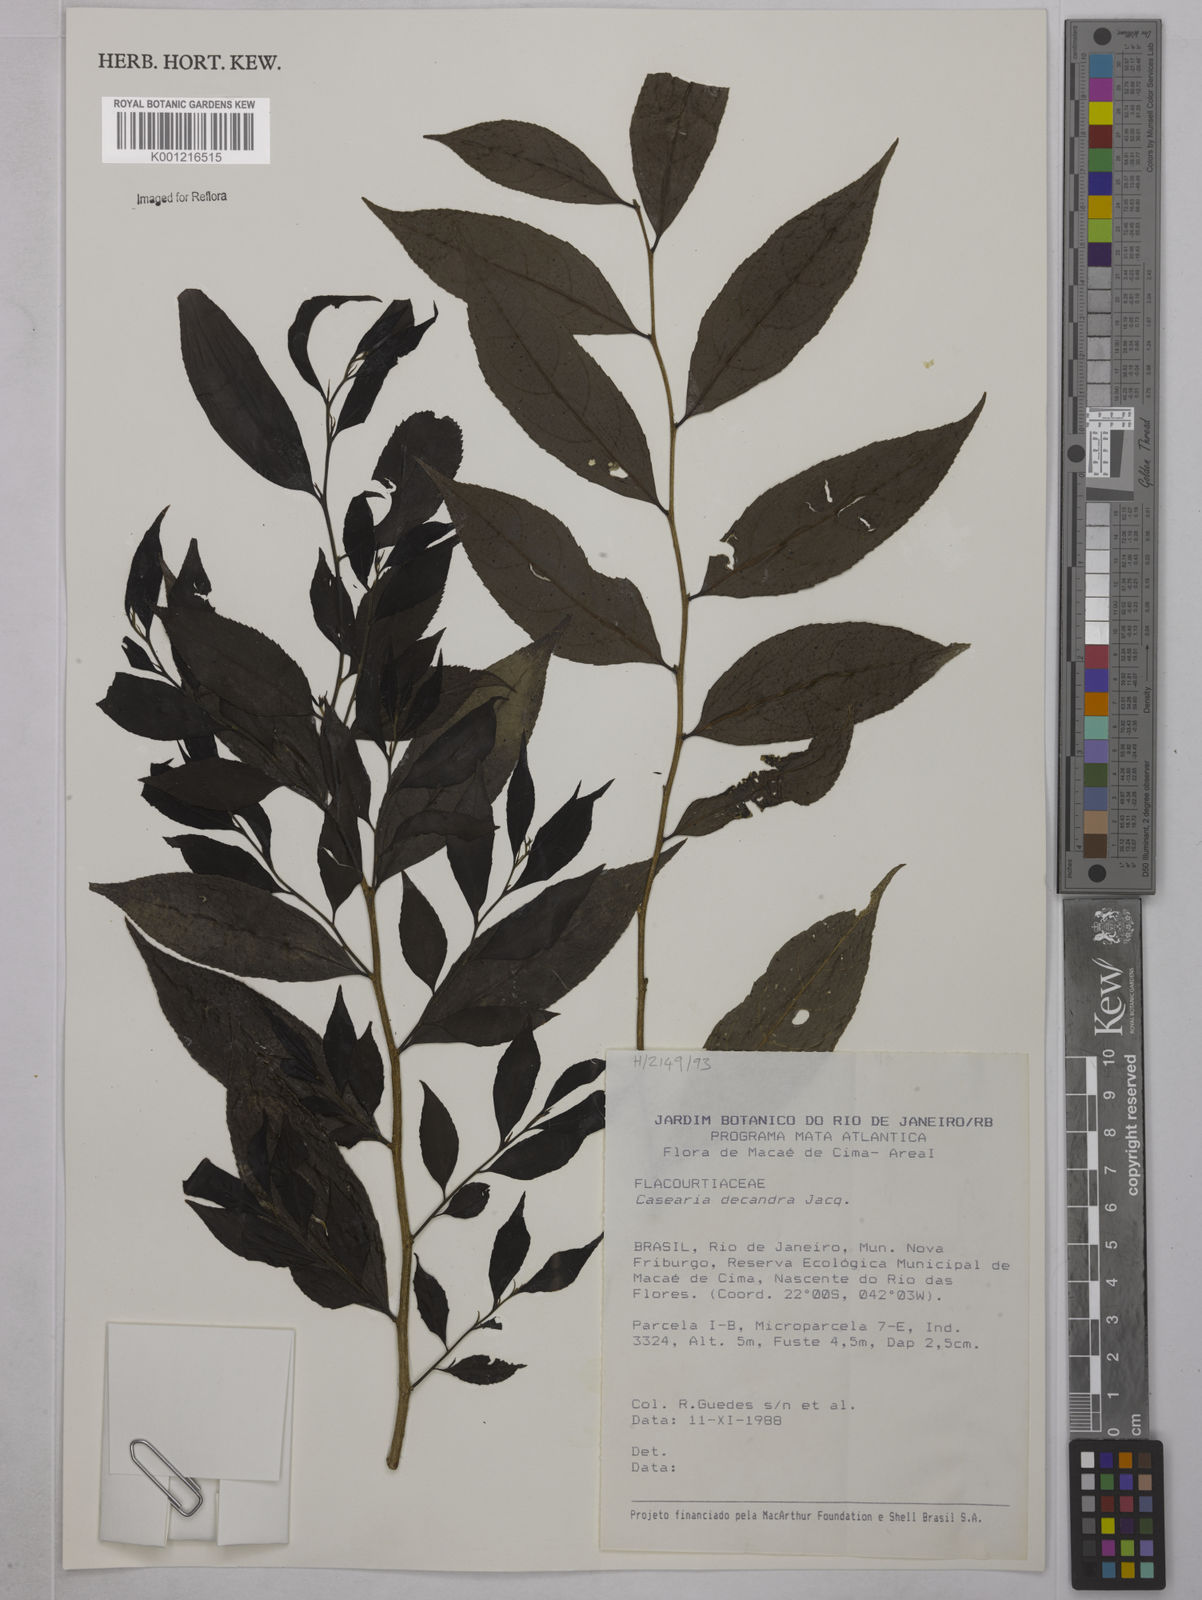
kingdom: Plantae
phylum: Tracheophyta
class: Magnoliopsida
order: Malpighiales
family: Salicaceae
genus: Casearia
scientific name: Casearia decandra
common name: Crack open
